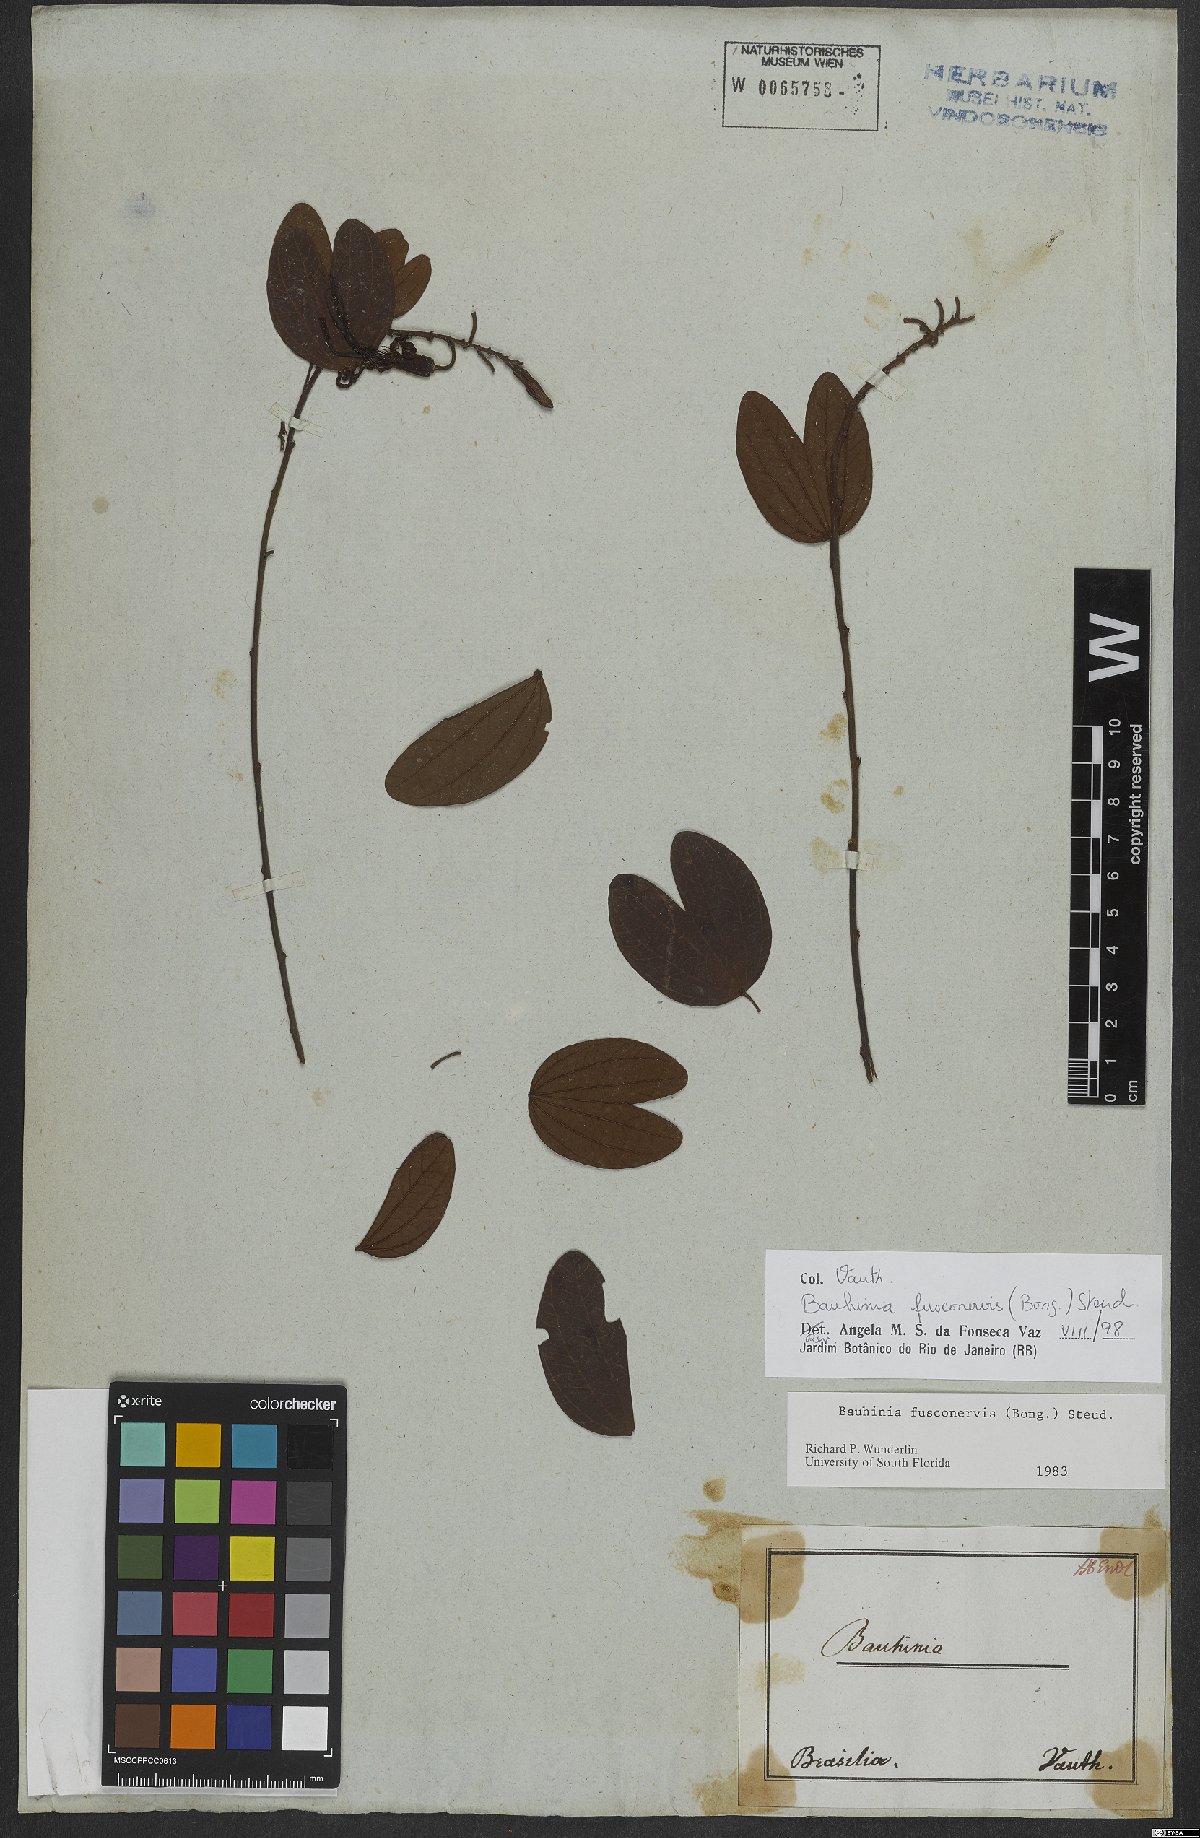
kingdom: Plantae
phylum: Tracheophyta
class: Magnoliopsida
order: Fabales
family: Fabaceae
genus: Bauhinia
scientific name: Bauhinia fusconervis
